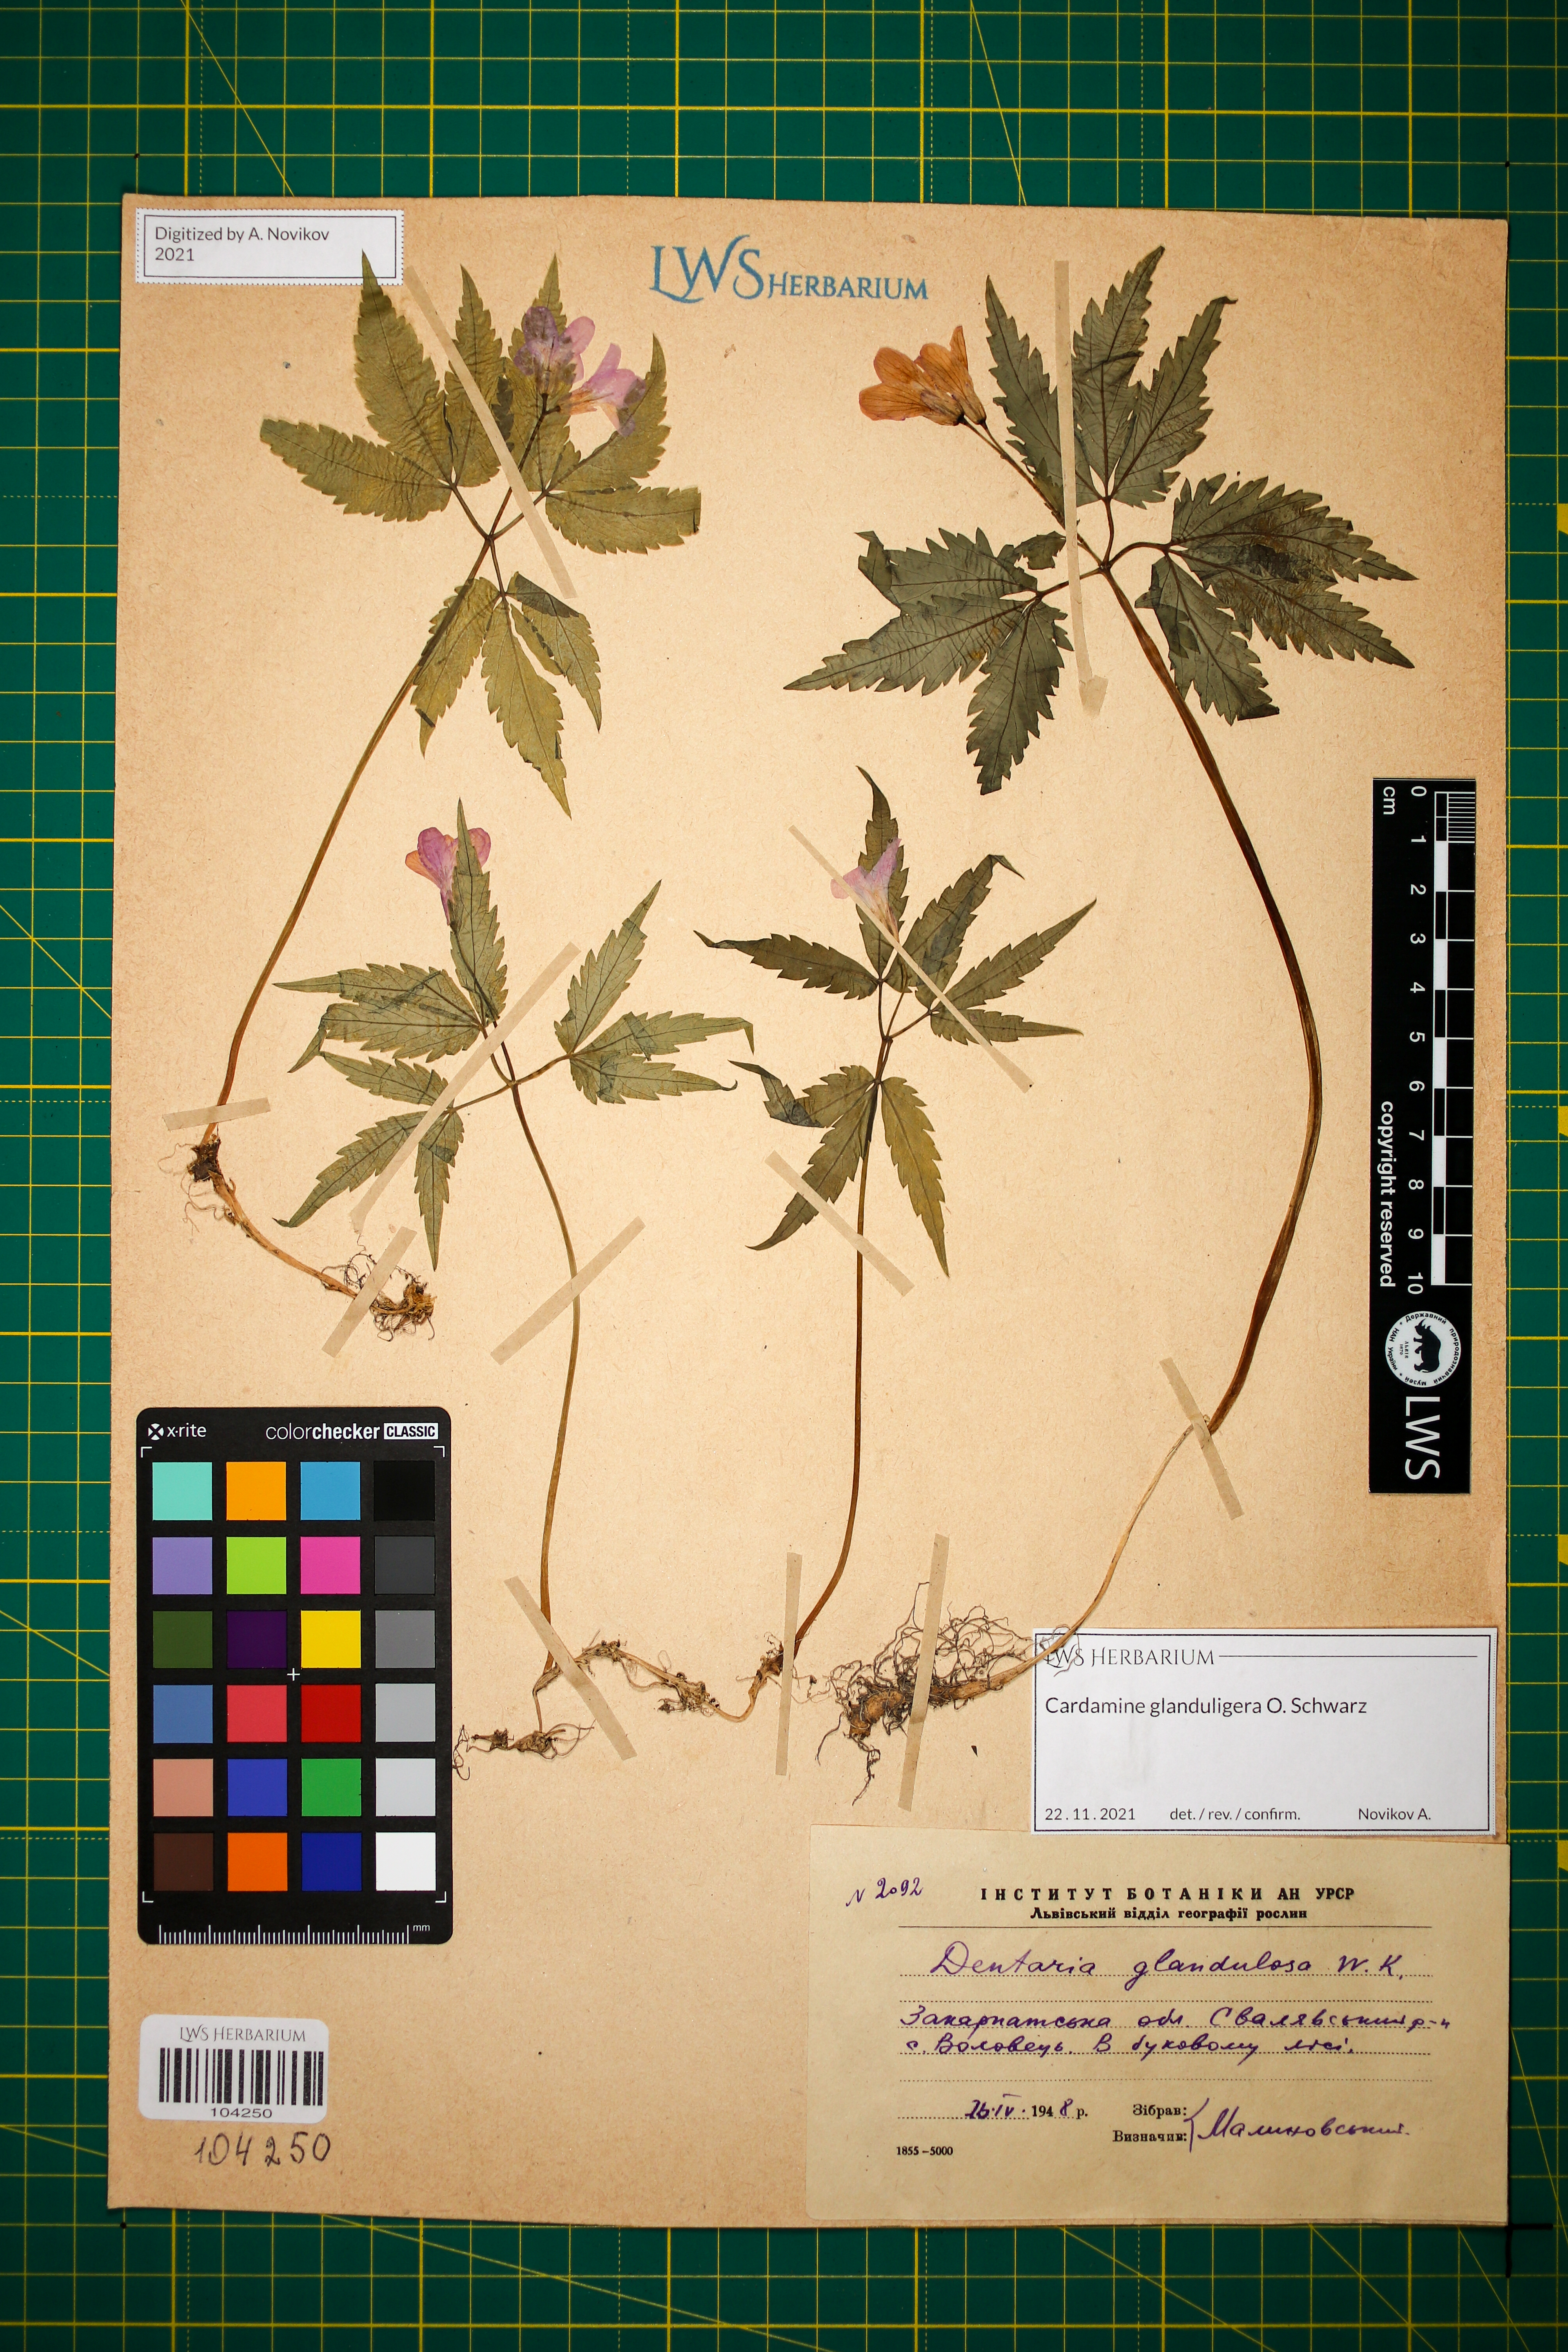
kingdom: Plantae
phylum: Tracheophyta
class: Magnoliopsida
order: Brassicales
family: Brassicaceae
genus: Cardamine
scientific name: Cardamine glanduligera
